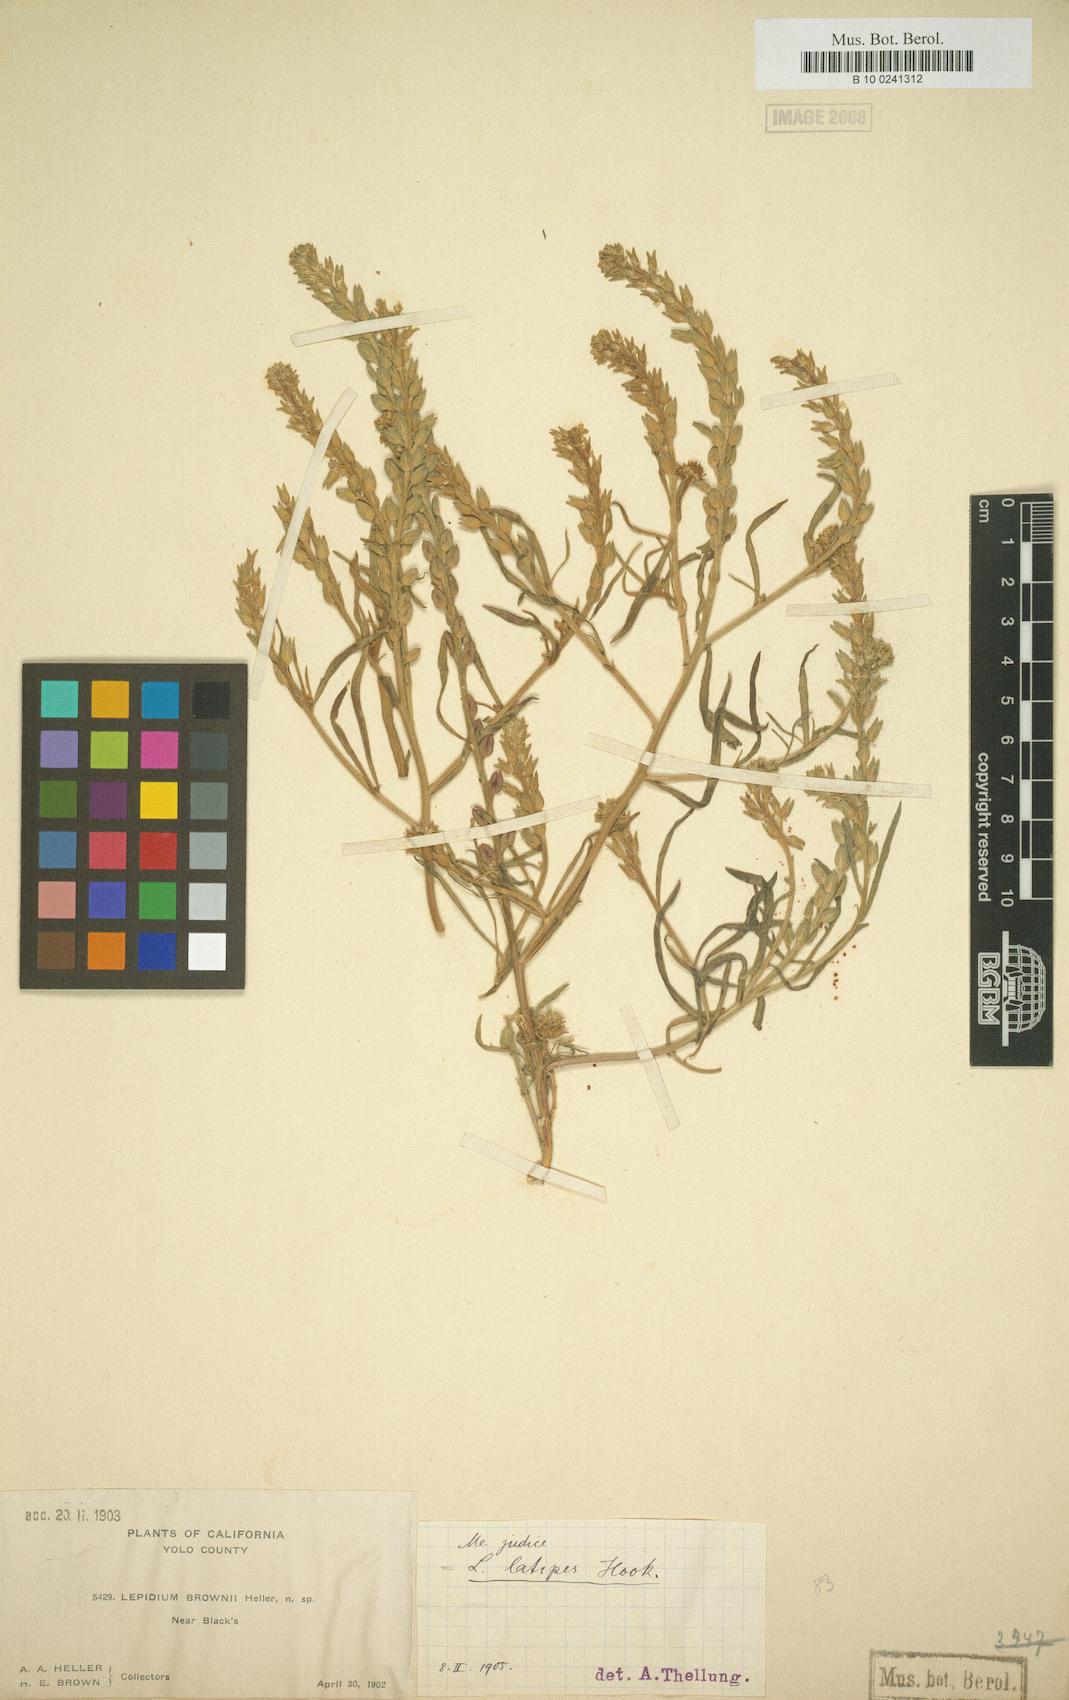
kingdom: Plantae
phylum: Tracheophyta
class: Magnoliopsida
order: Brassicales
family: Brassicaceae
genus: Lepidium
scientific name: Lepidium latipes
